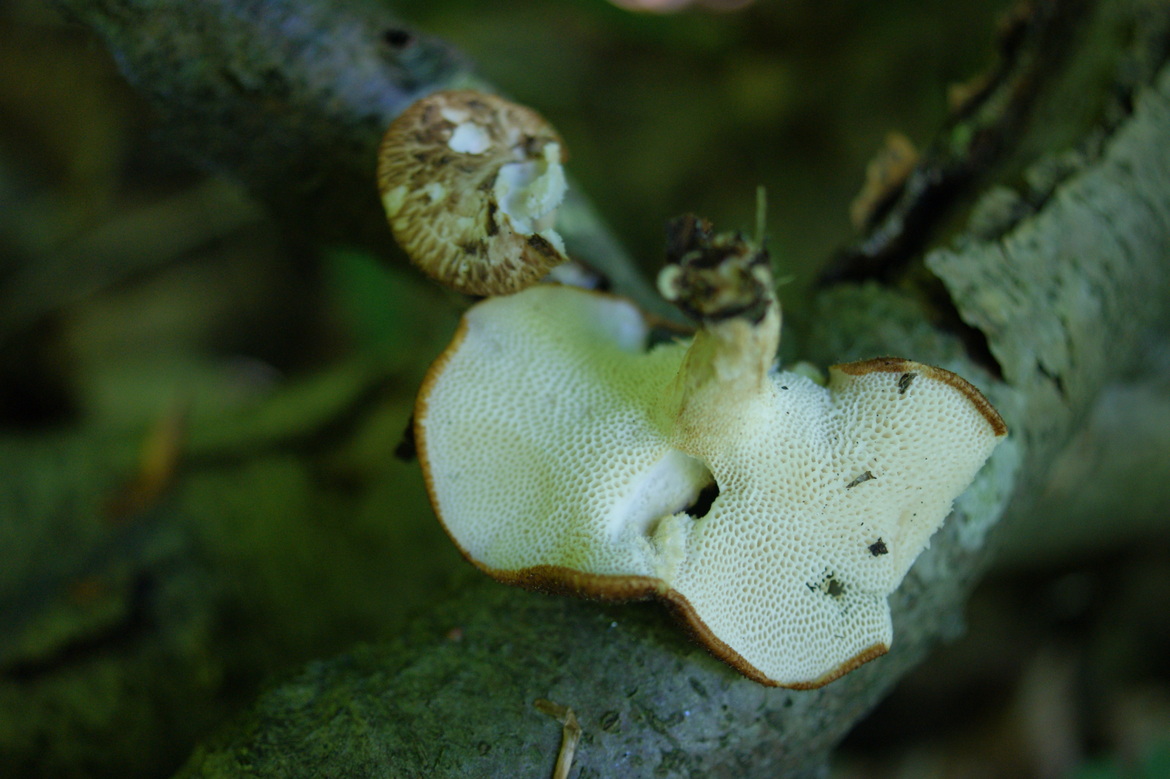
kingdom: Fungi
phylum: Basidiomycota
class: Agaricomycetes
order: Polyporales
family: Polyporaceae
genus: Polyporus
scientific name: Polyporus tuberaster
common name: knoldet stilkporesvamp
